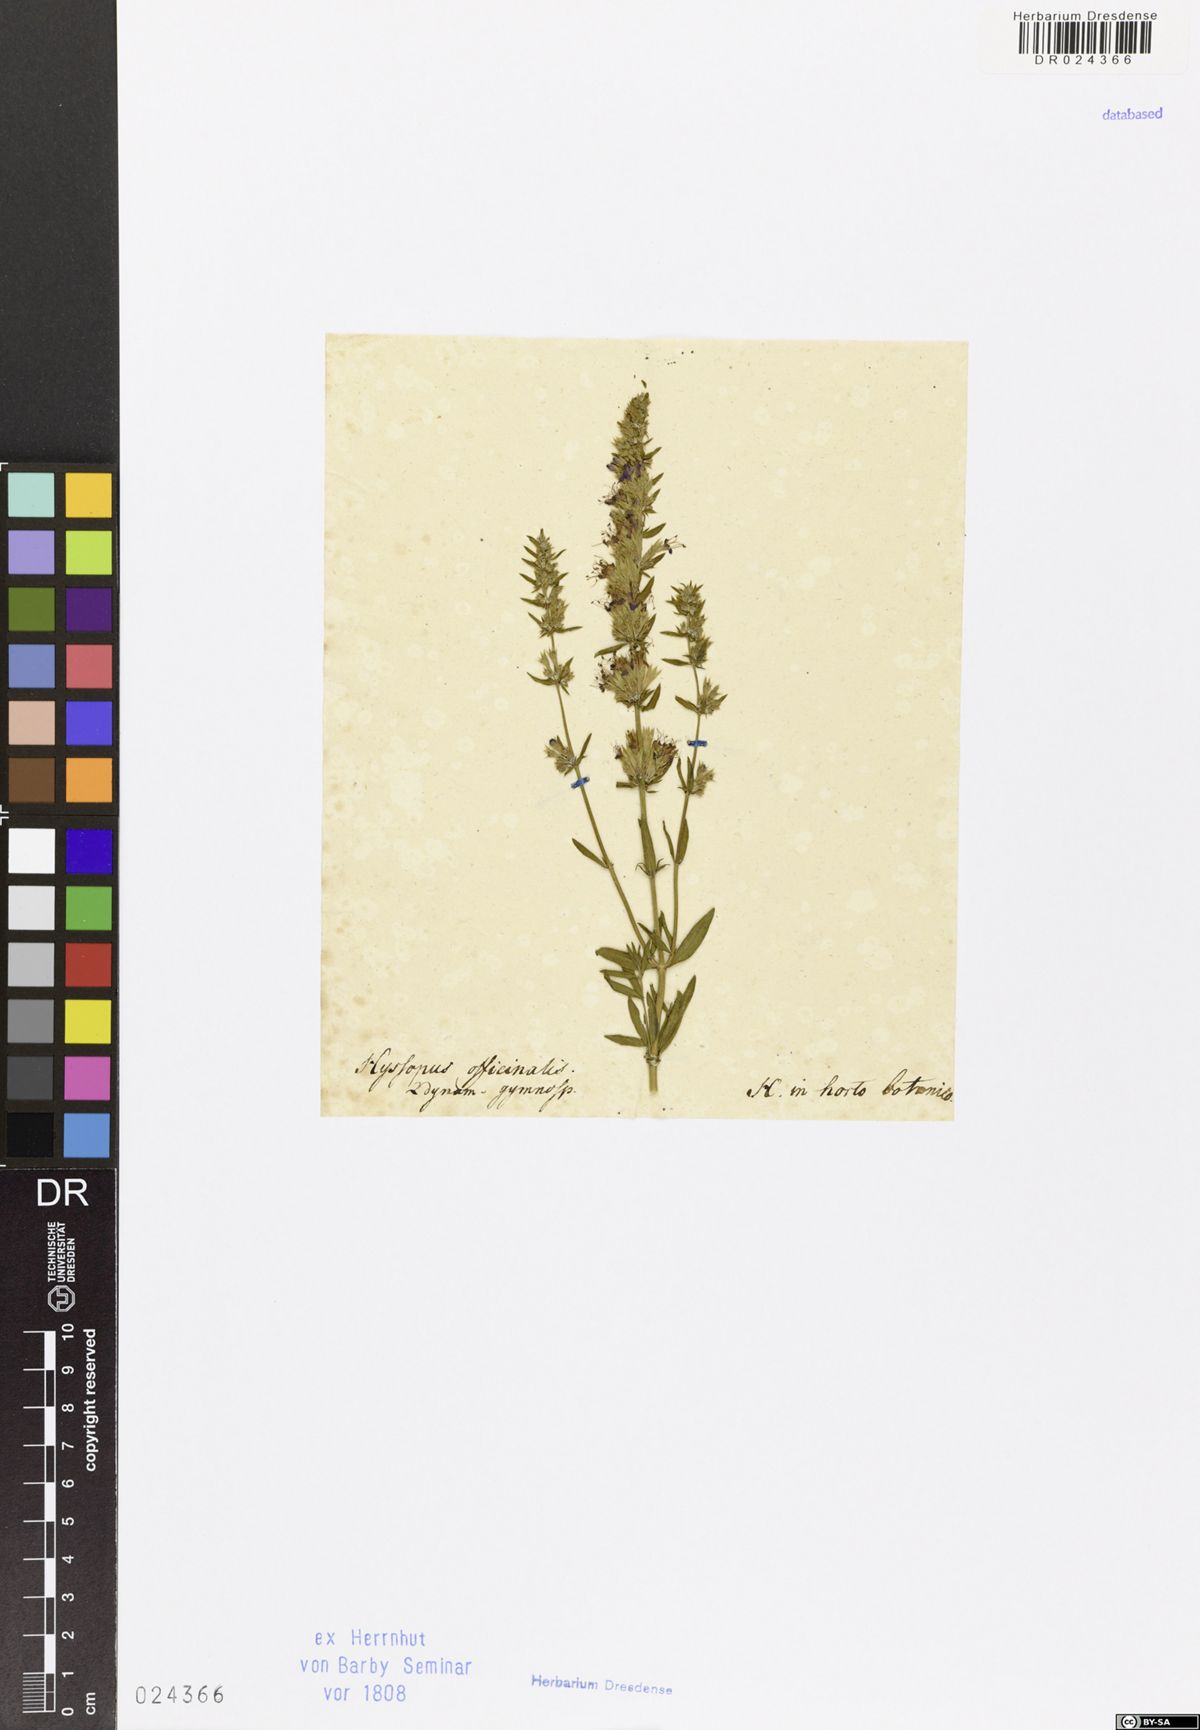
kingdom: Plantae
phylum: Tracheophyta
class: Magnoliopsida
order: Lamiales
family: Lamiaceae
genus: Hyssopus
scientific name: Hyssopus officinalis
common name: Hyssop
